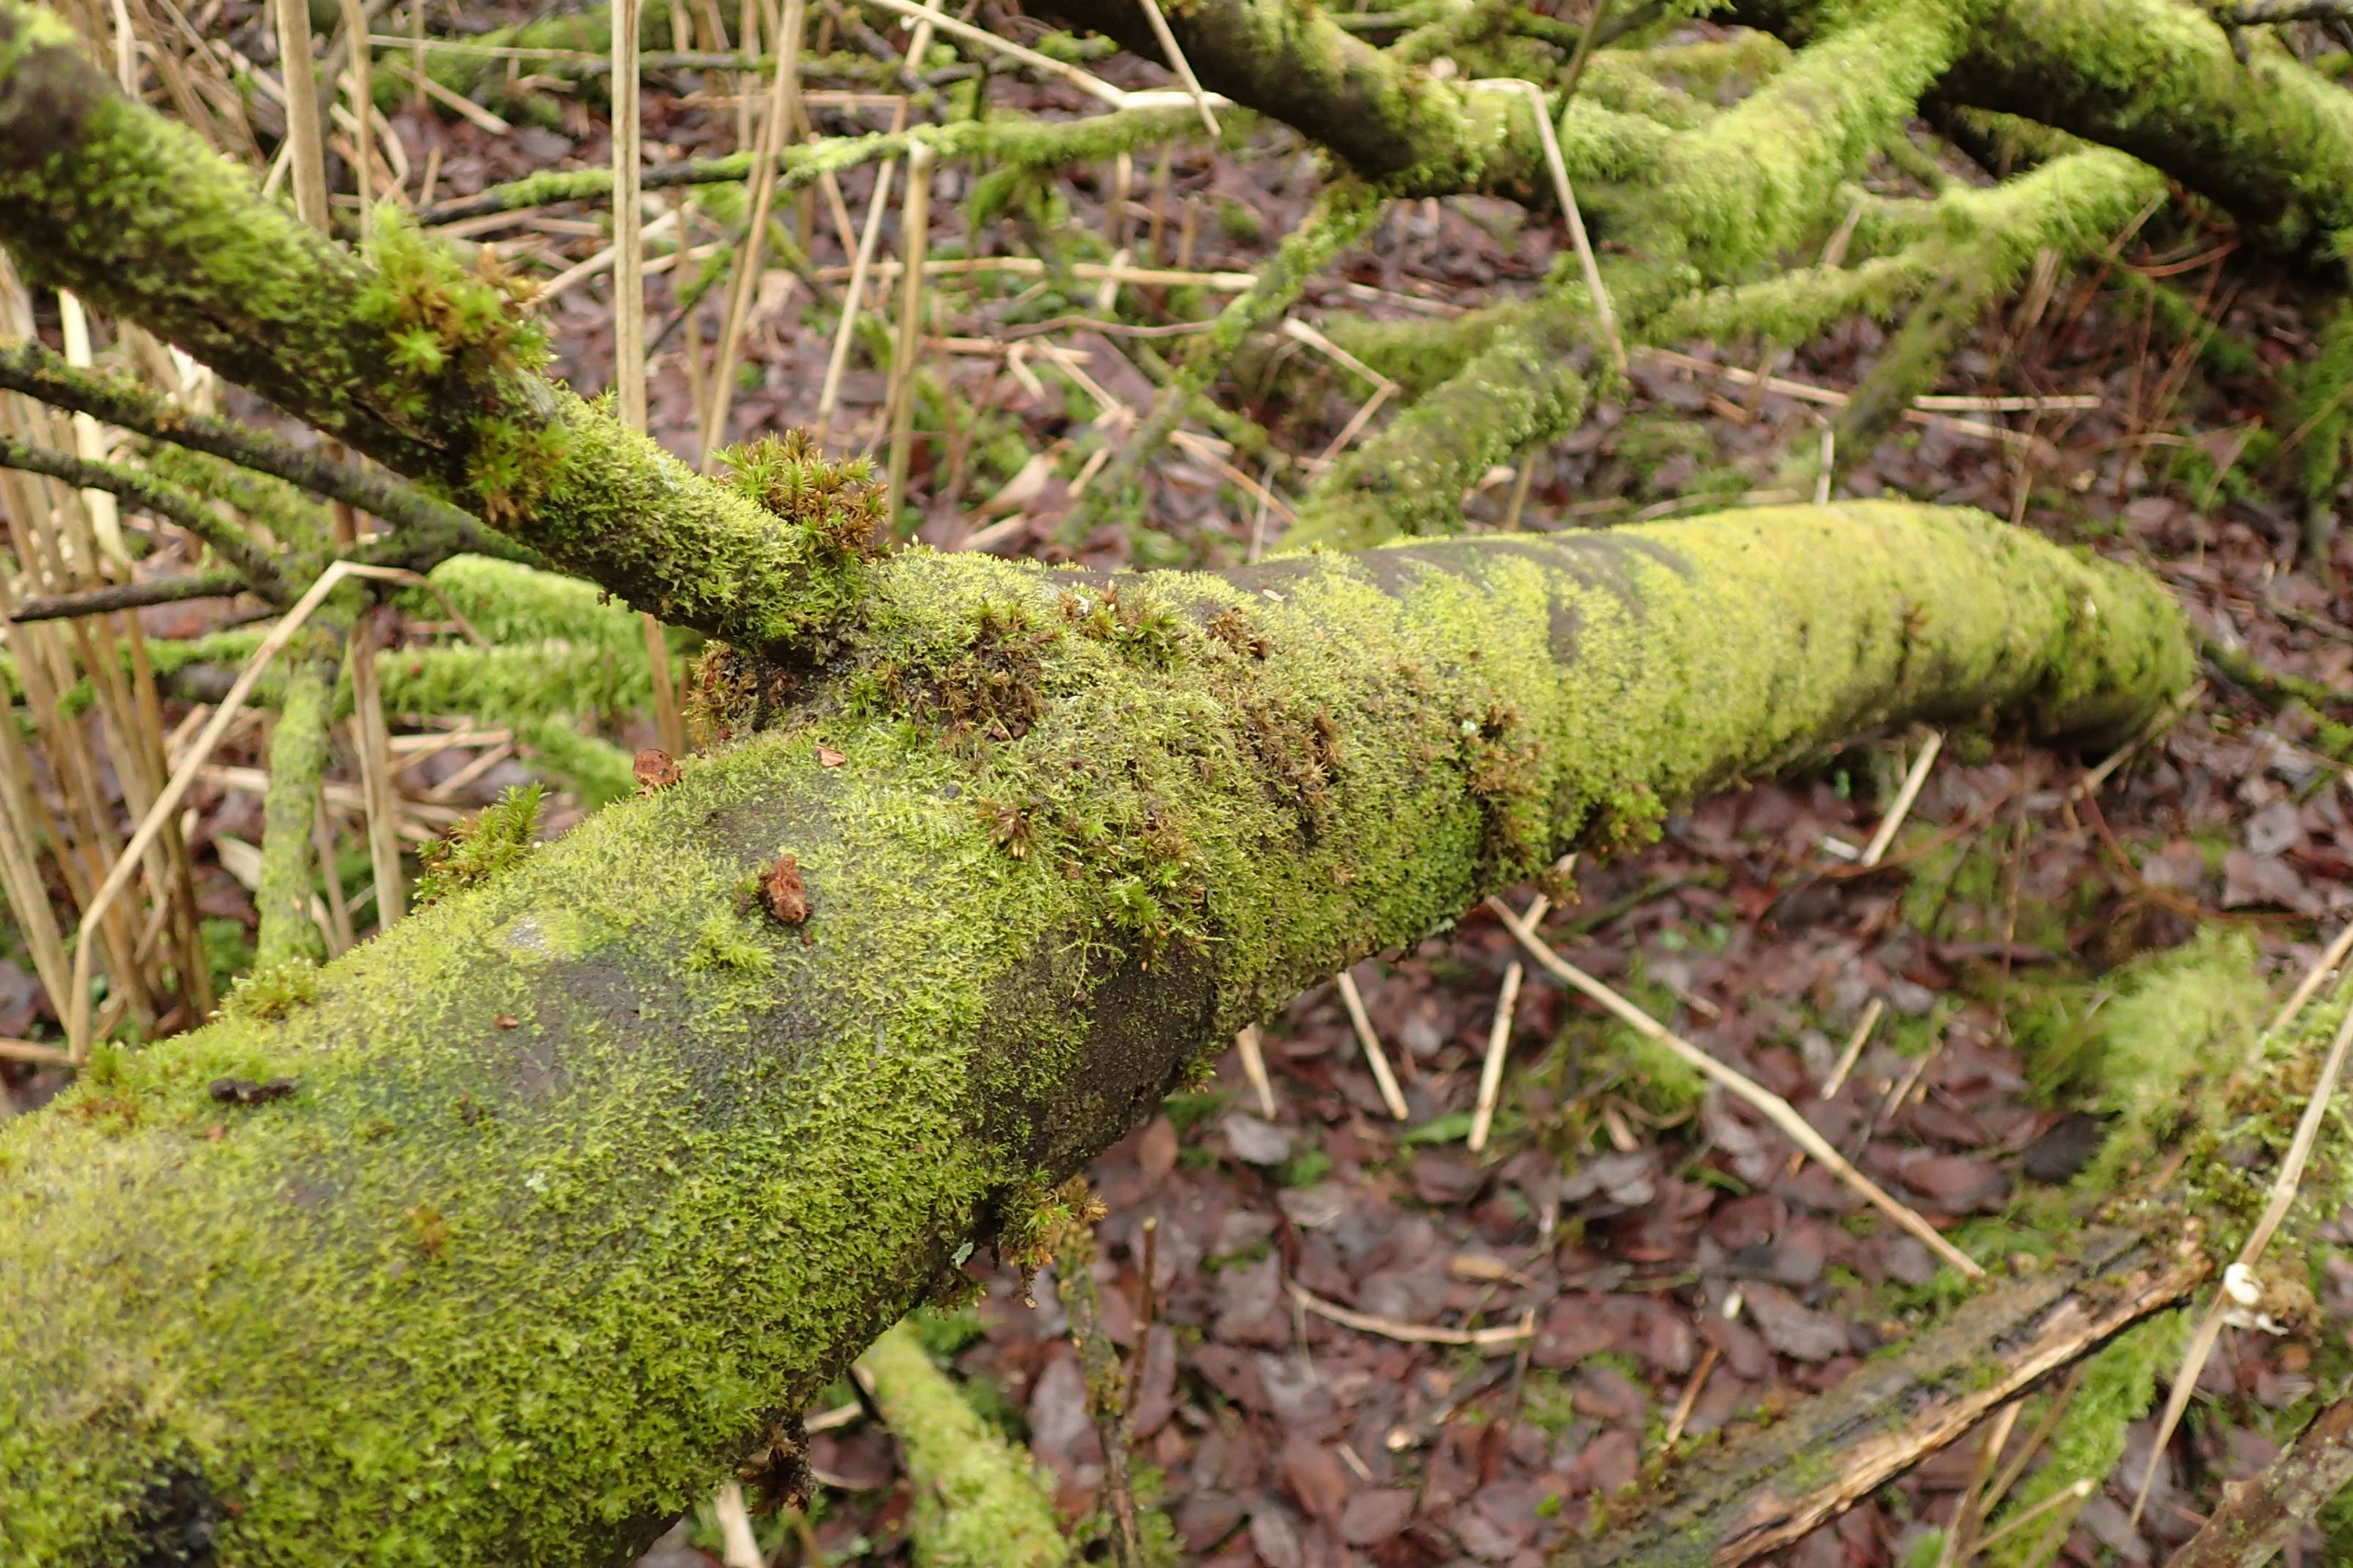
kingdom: Plantae
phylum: Marchantiophyta
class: Jungermanniopsida
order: Metzgeriales
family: Aneuraceae
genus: Riccardia
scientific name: Riccardia palmata
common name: Blågrøn gaffelløv
